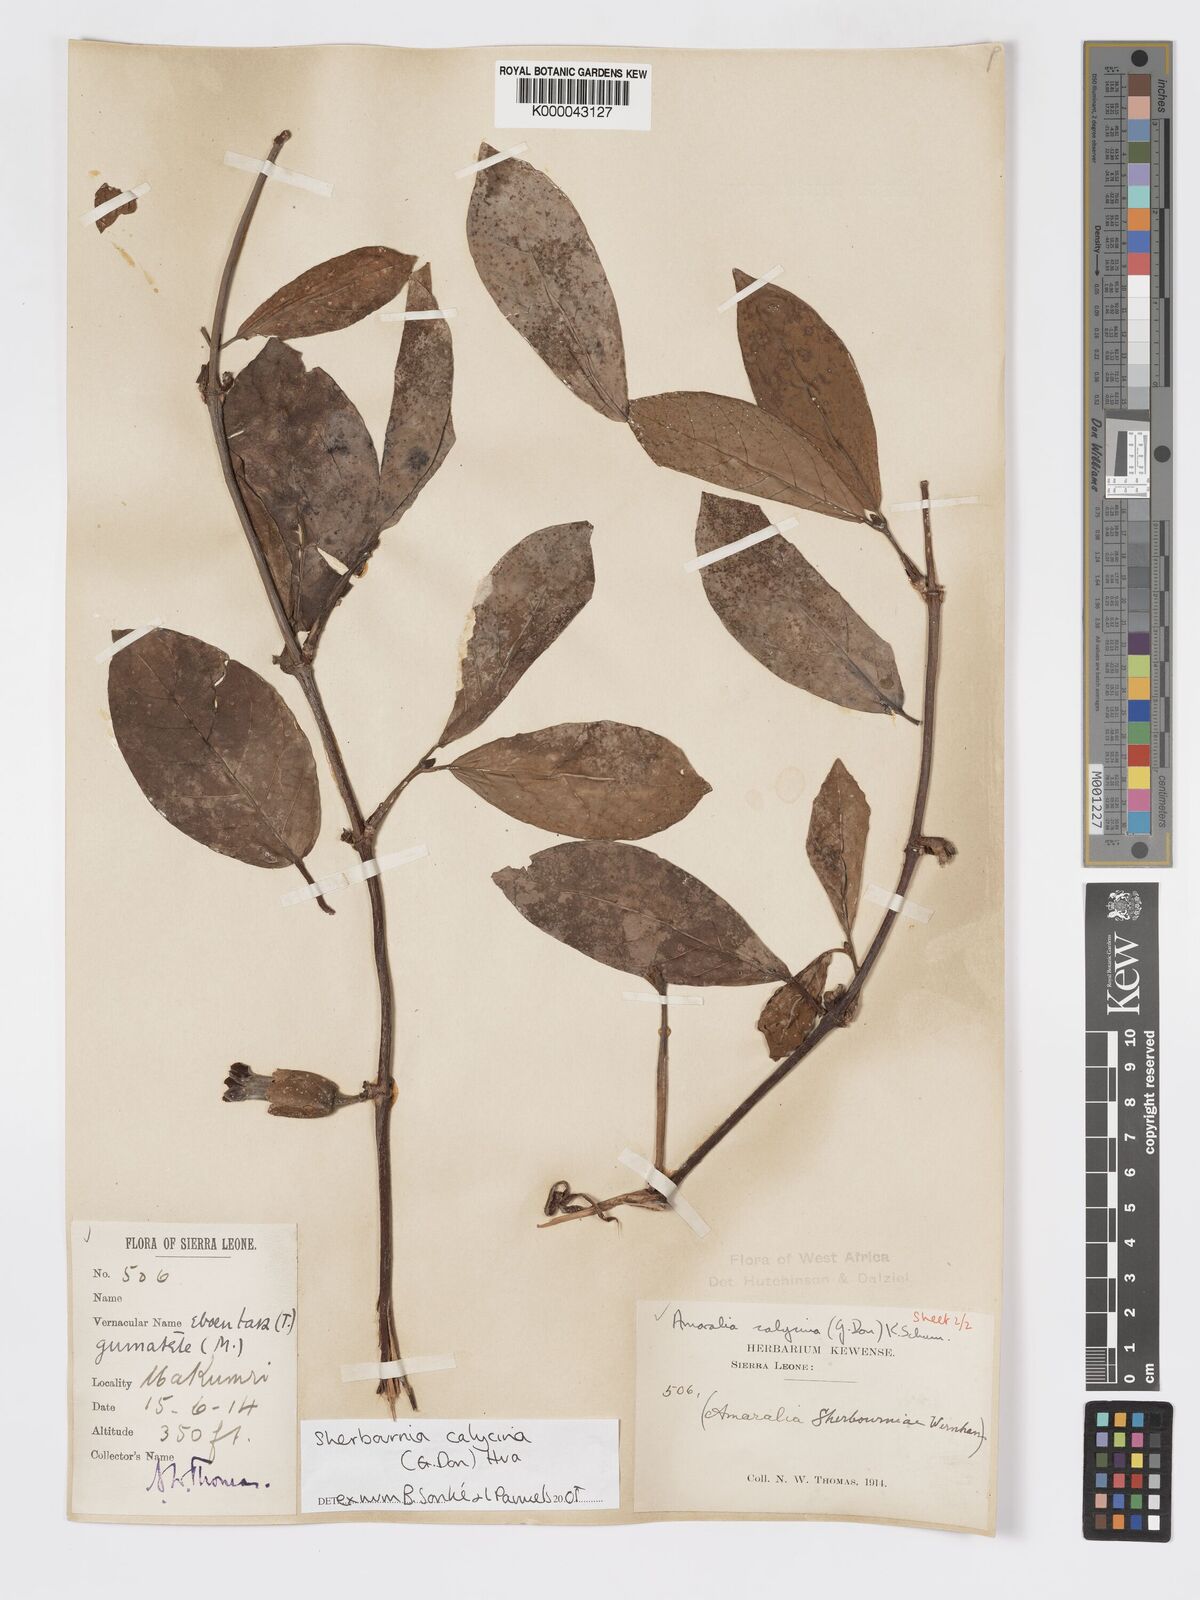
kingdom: Plantae
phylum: Tracheophyta
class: Magnoliopsida
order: Gentianales
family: Rubiaceae
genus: Sherbournia
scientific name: Sherbournia calycina
